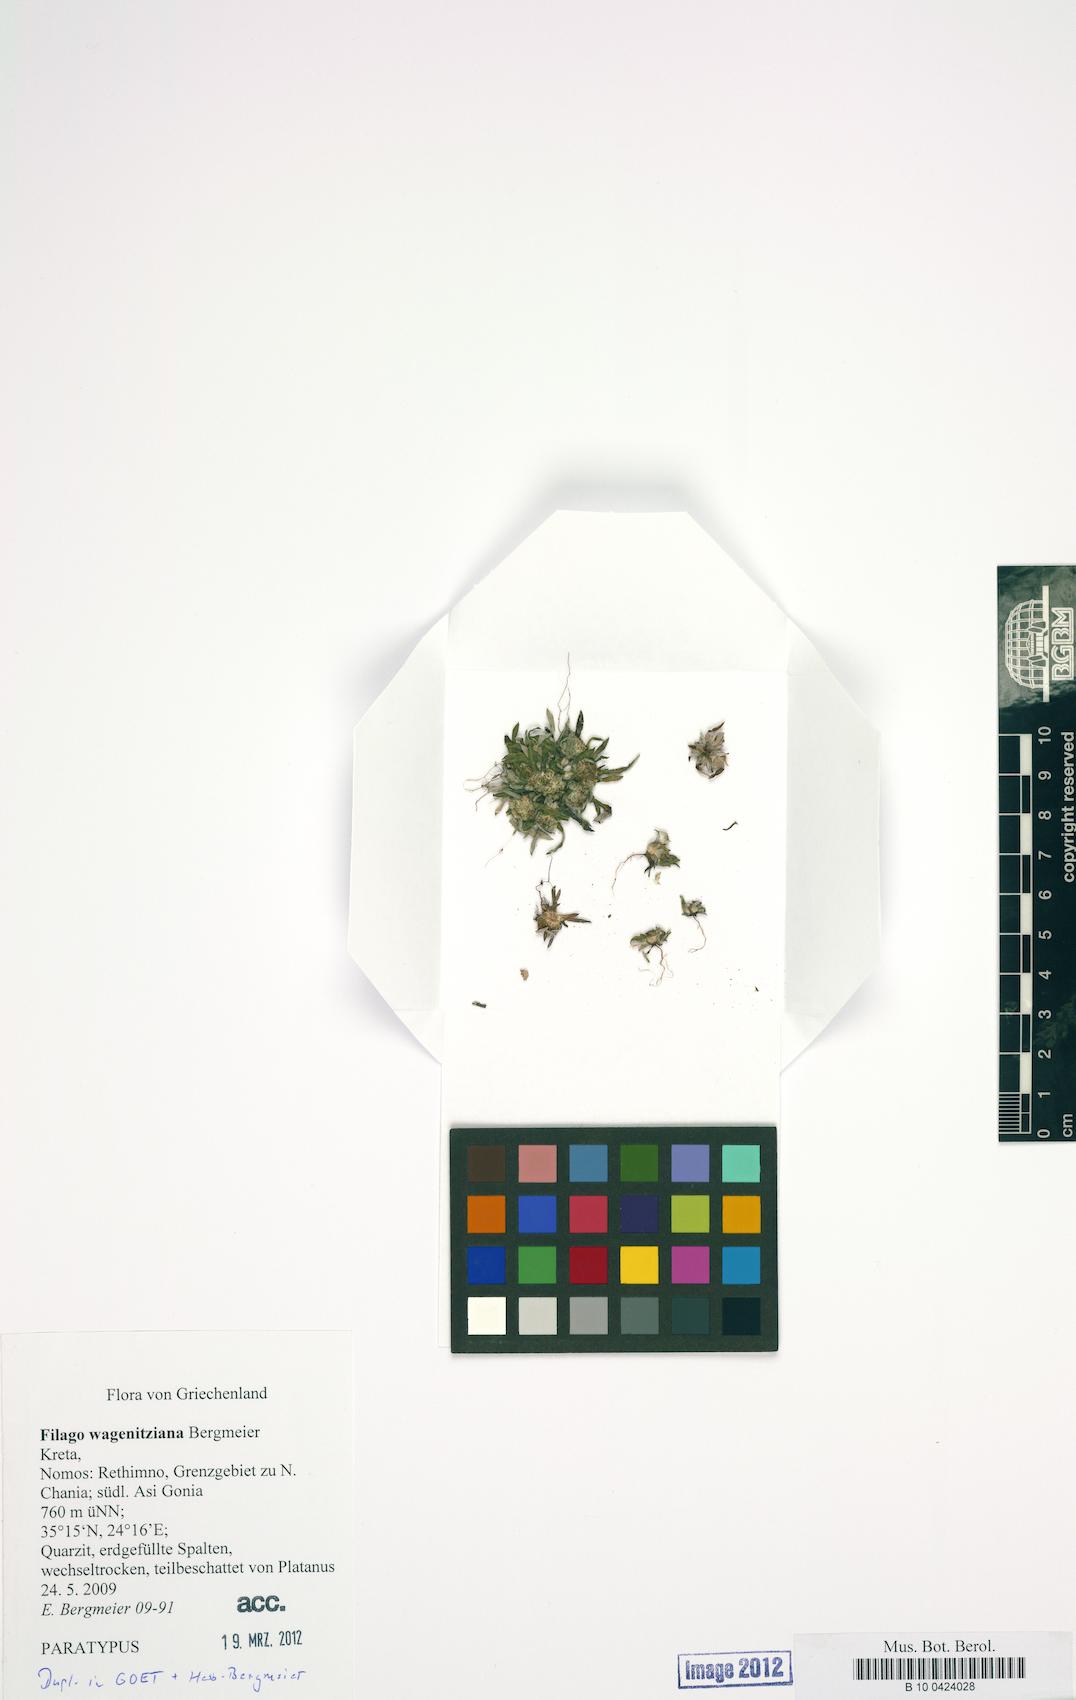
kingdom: Plantae
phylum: Tracheophyta
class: Magnoliopsida
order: Asterales
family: Asteraceae
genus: Filago
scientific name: Filago wagenitziana
